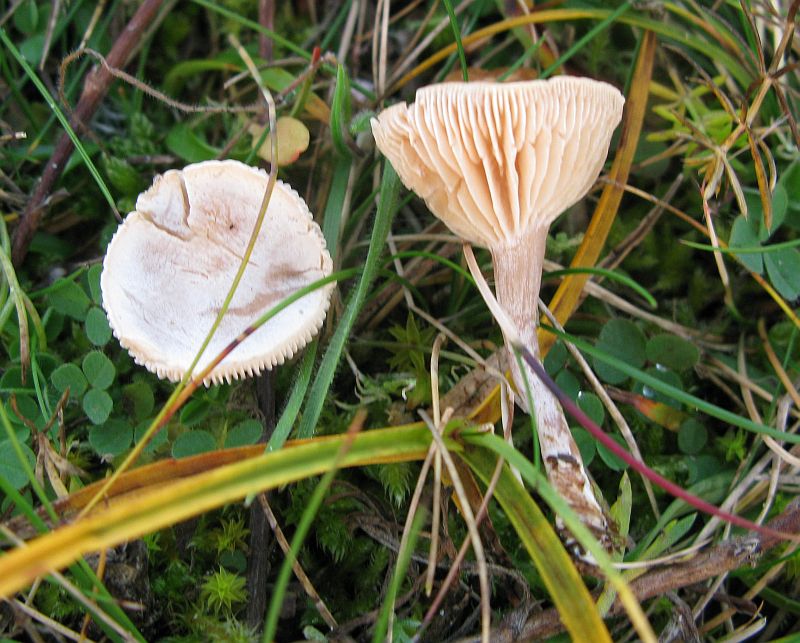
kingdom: Fungi
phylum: Basidiomycota
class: Agaricomycetes
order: Agaricales
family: Tricholomataceae
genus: Clitocybe
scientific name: Clitocybe rivulosa
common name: eng-tragthat
